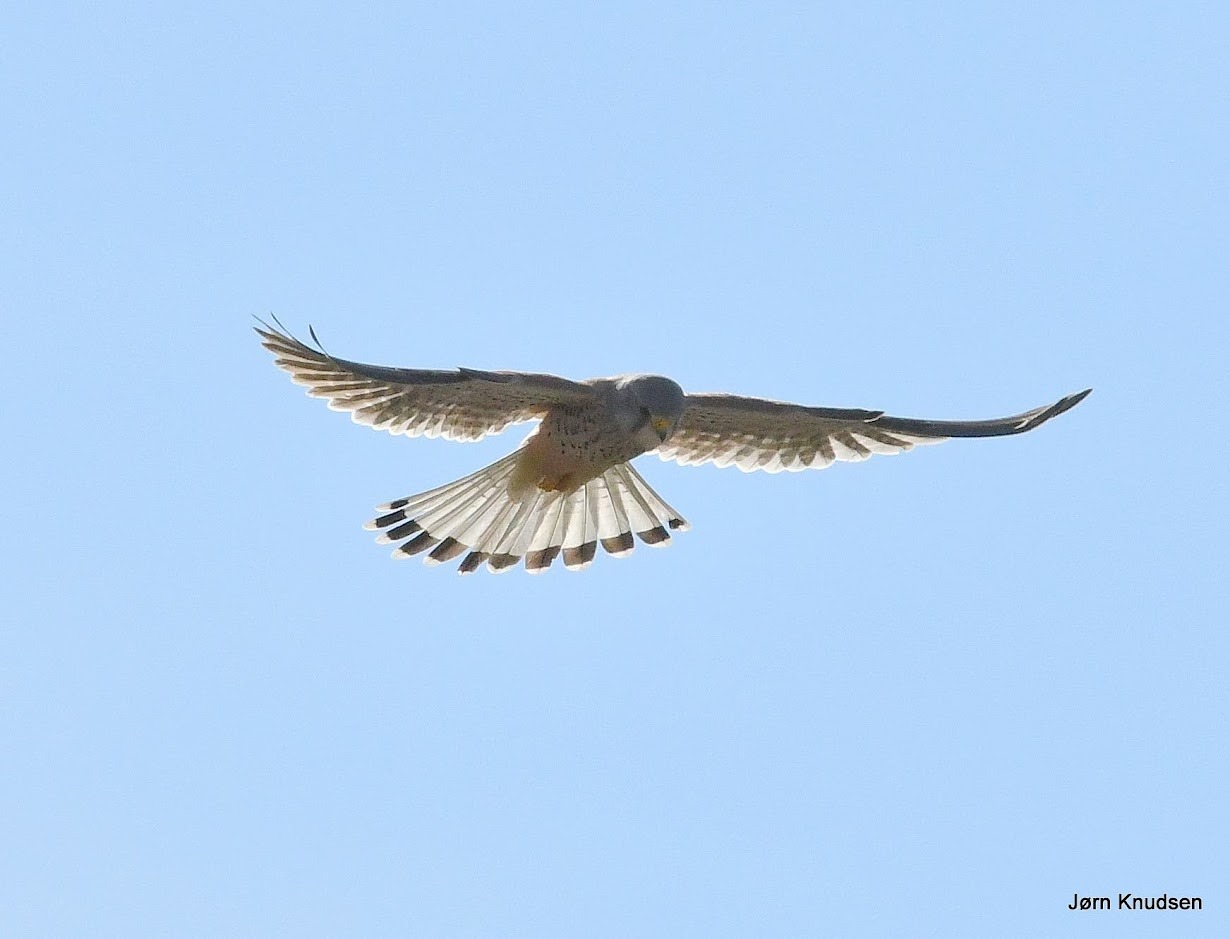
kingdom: Animalia
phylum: Chordata
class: Aves
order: Falconiformes
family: Falconidae
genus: Falco
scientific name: Falco tinnunculus
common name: Tårnfalk
